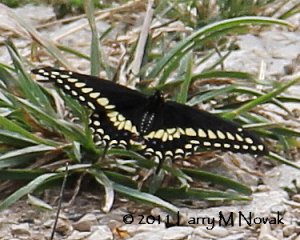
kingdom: Animalia
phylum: Arthropoda
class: Insecta
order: Lepidoptera
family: Papilionidae
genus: Papilio
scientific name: Papilio polyxenes
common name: Black Swallowtail
